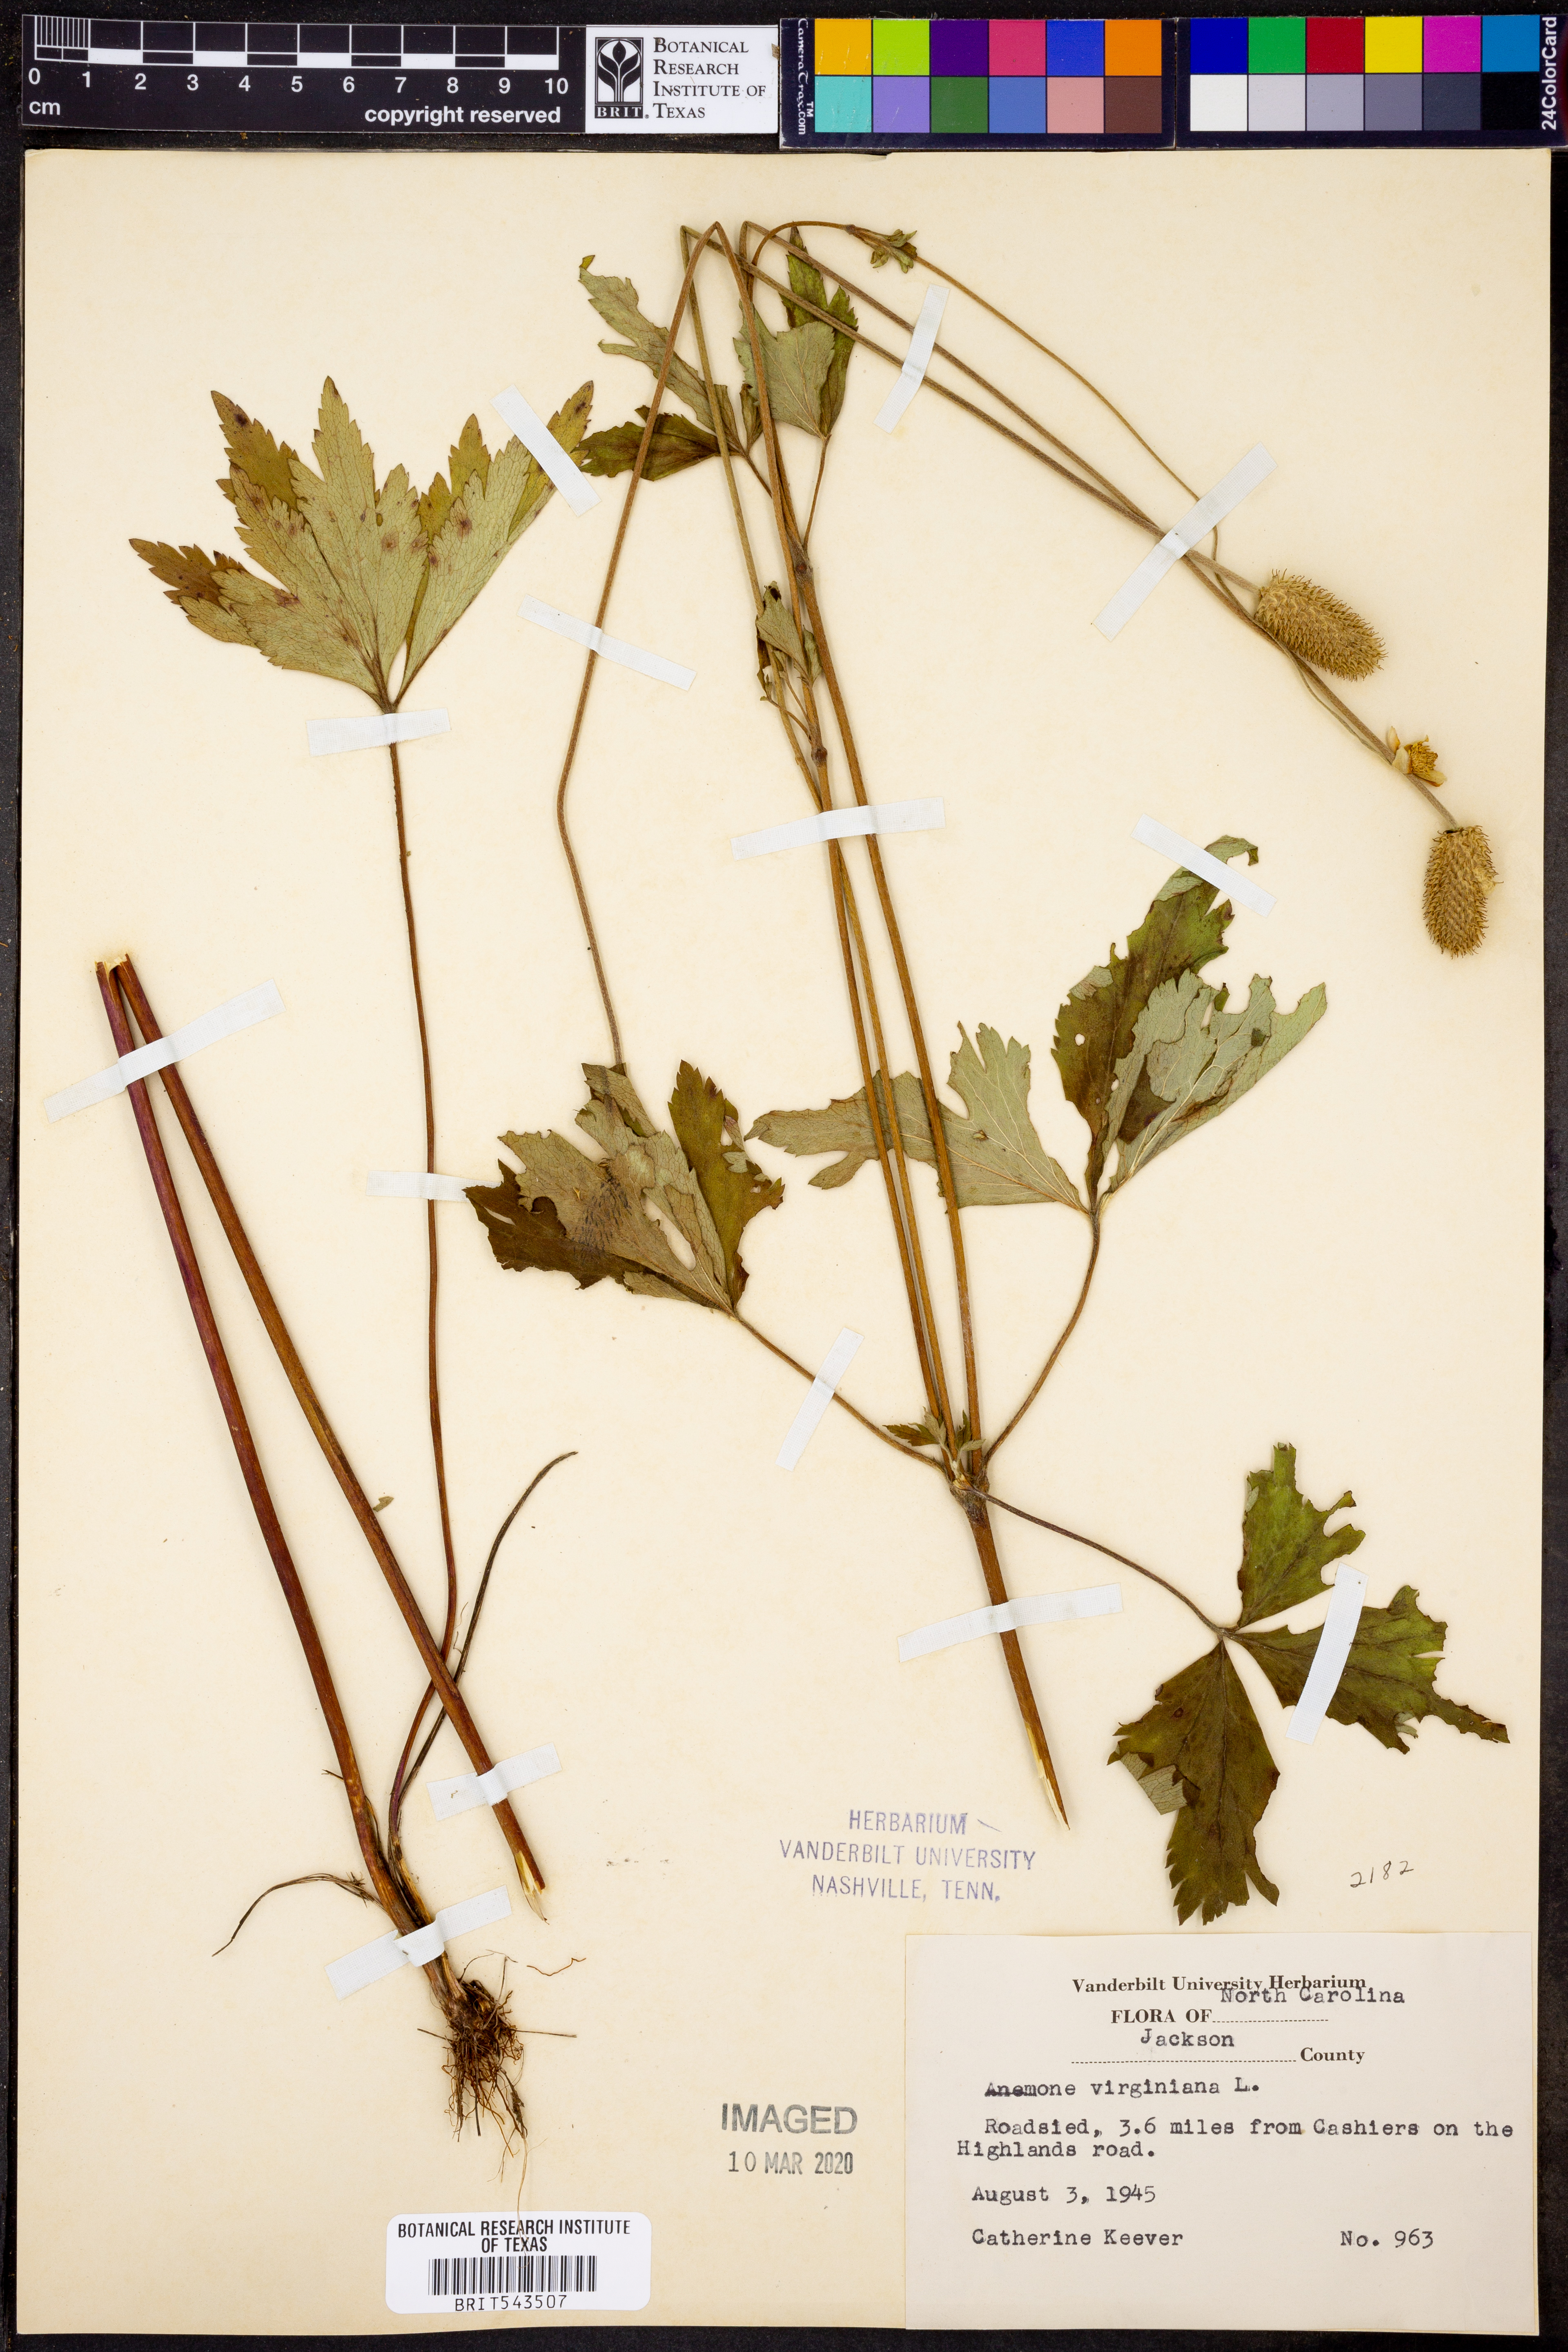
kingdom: Plantae
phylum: Tracheophyta
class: Magnoliopsida
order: Ranunculales
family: Ranunculaceae
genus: Anemone
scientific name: Anemone virginiana
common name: Tall anemone
